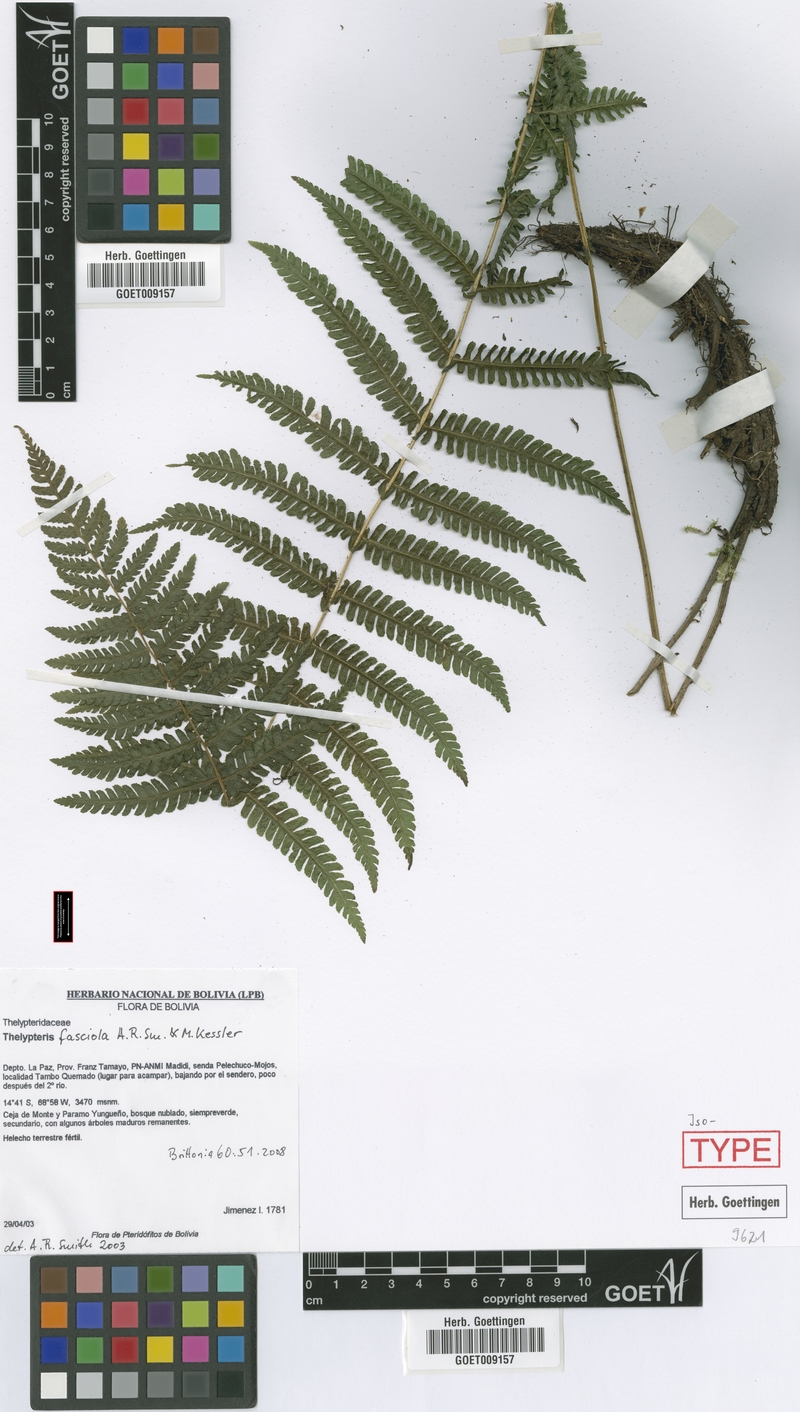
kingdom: Plantae
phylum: Tracheophyta
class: Polypodiopsida
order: Polypodiales
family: Thelypteridaceae
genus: Amauropelta
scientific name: Amauropelta fasciola
